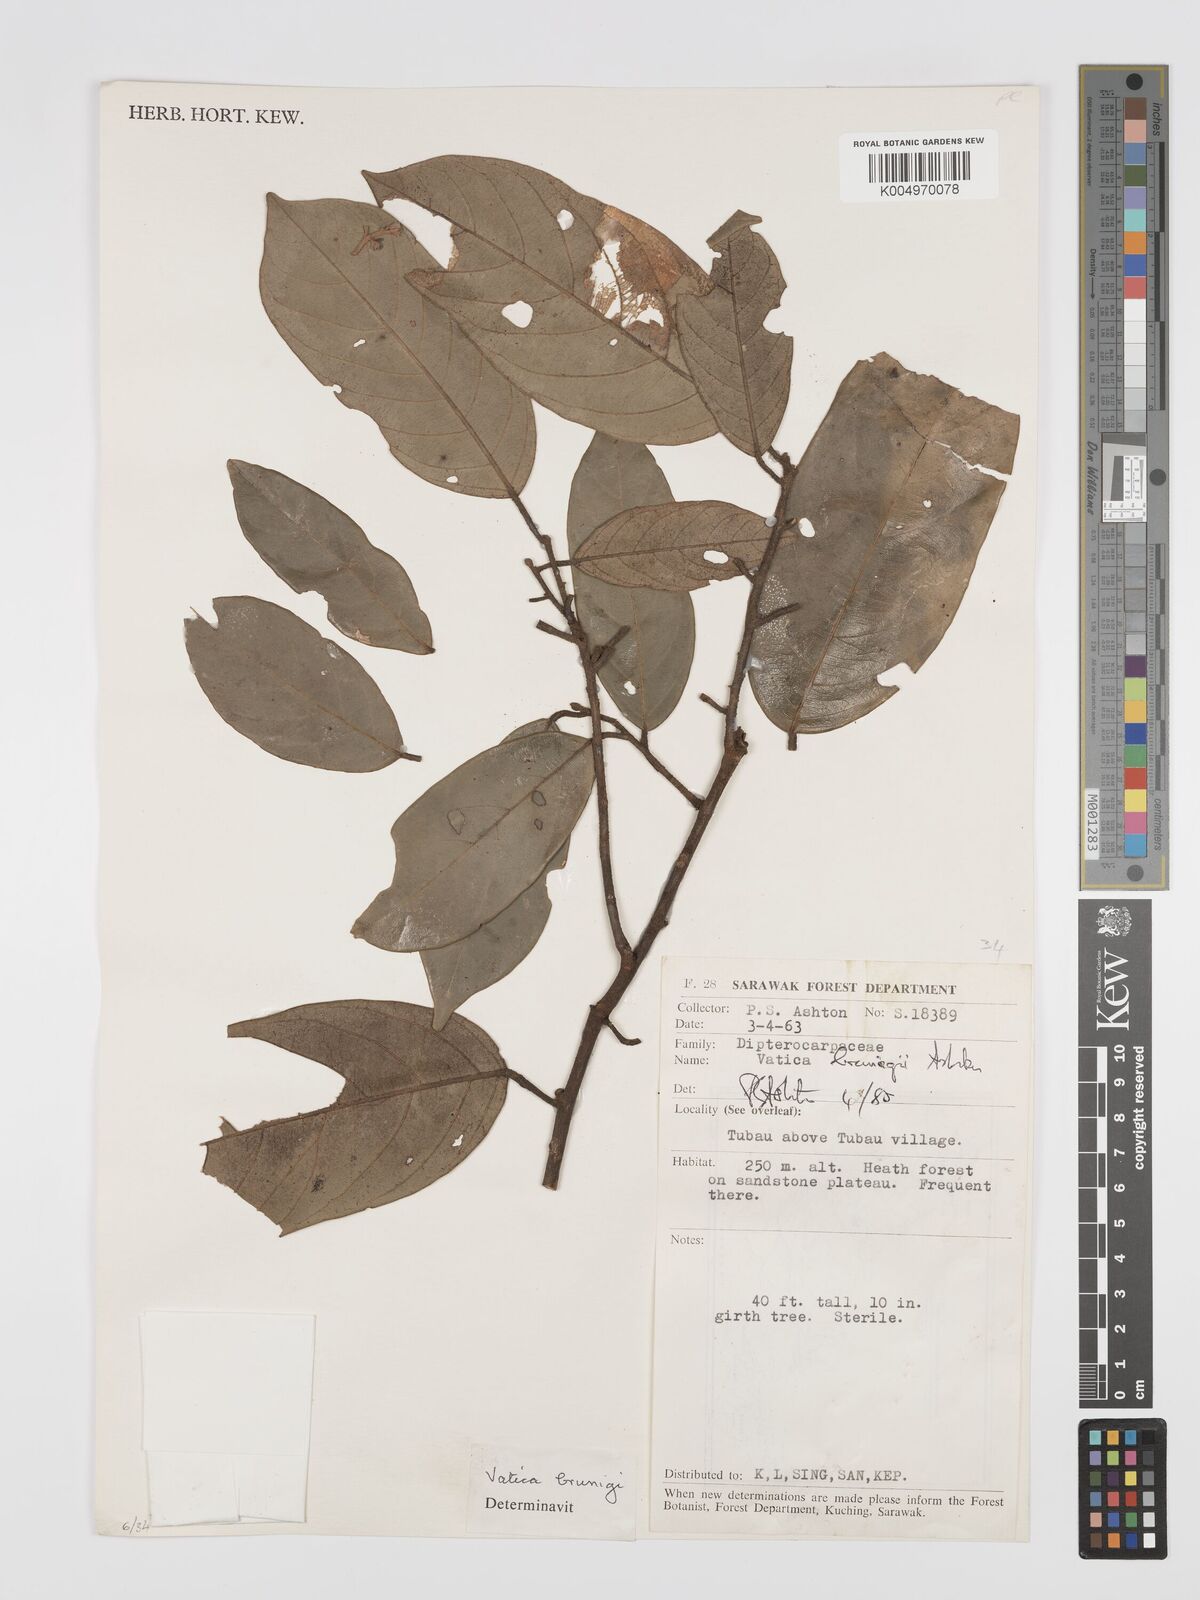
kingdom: Plantae
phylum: Tracheophyta
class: Magnoliopsida
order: Malvales
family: Dipterocarpaceae
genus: Vatica
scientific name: Vatica brunigii
